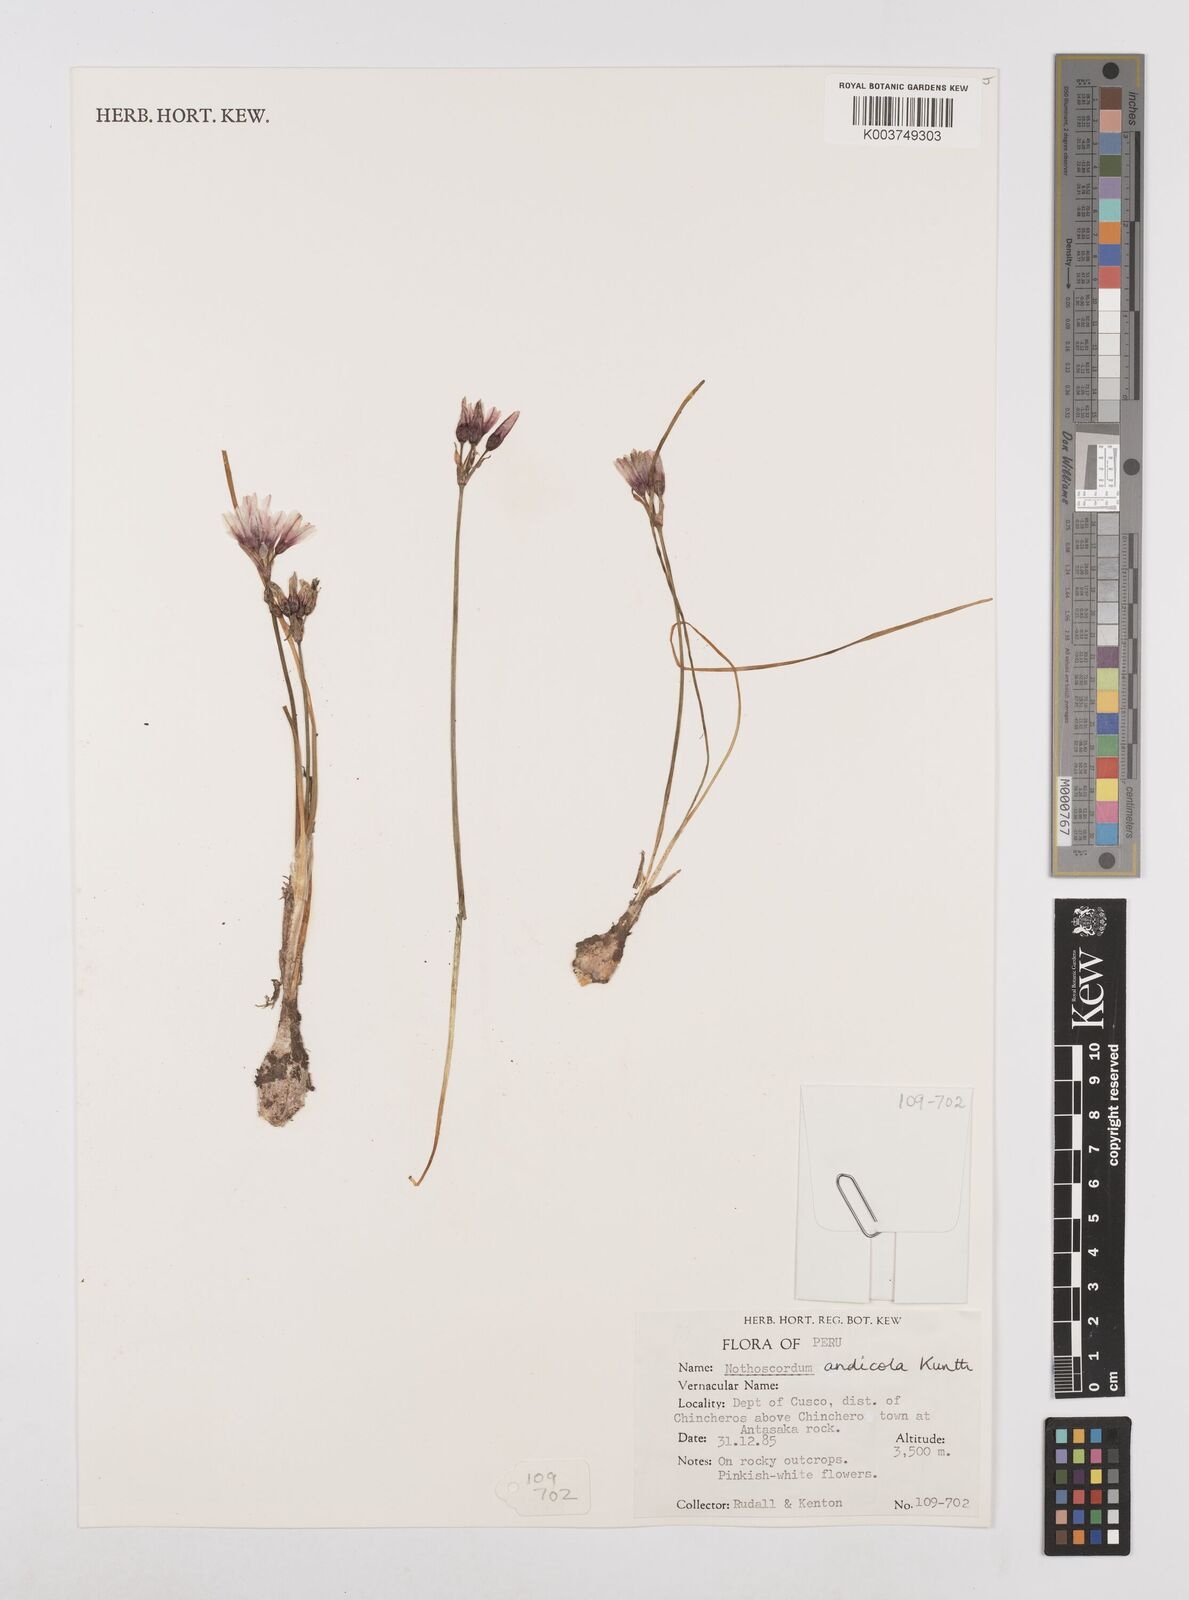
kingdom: Plantae
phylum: Tracheophyta
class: Liliopsida
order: Asparagales
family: Amaryllidaceae
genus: Nothoscordum
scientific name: Nothoscordum andicola
